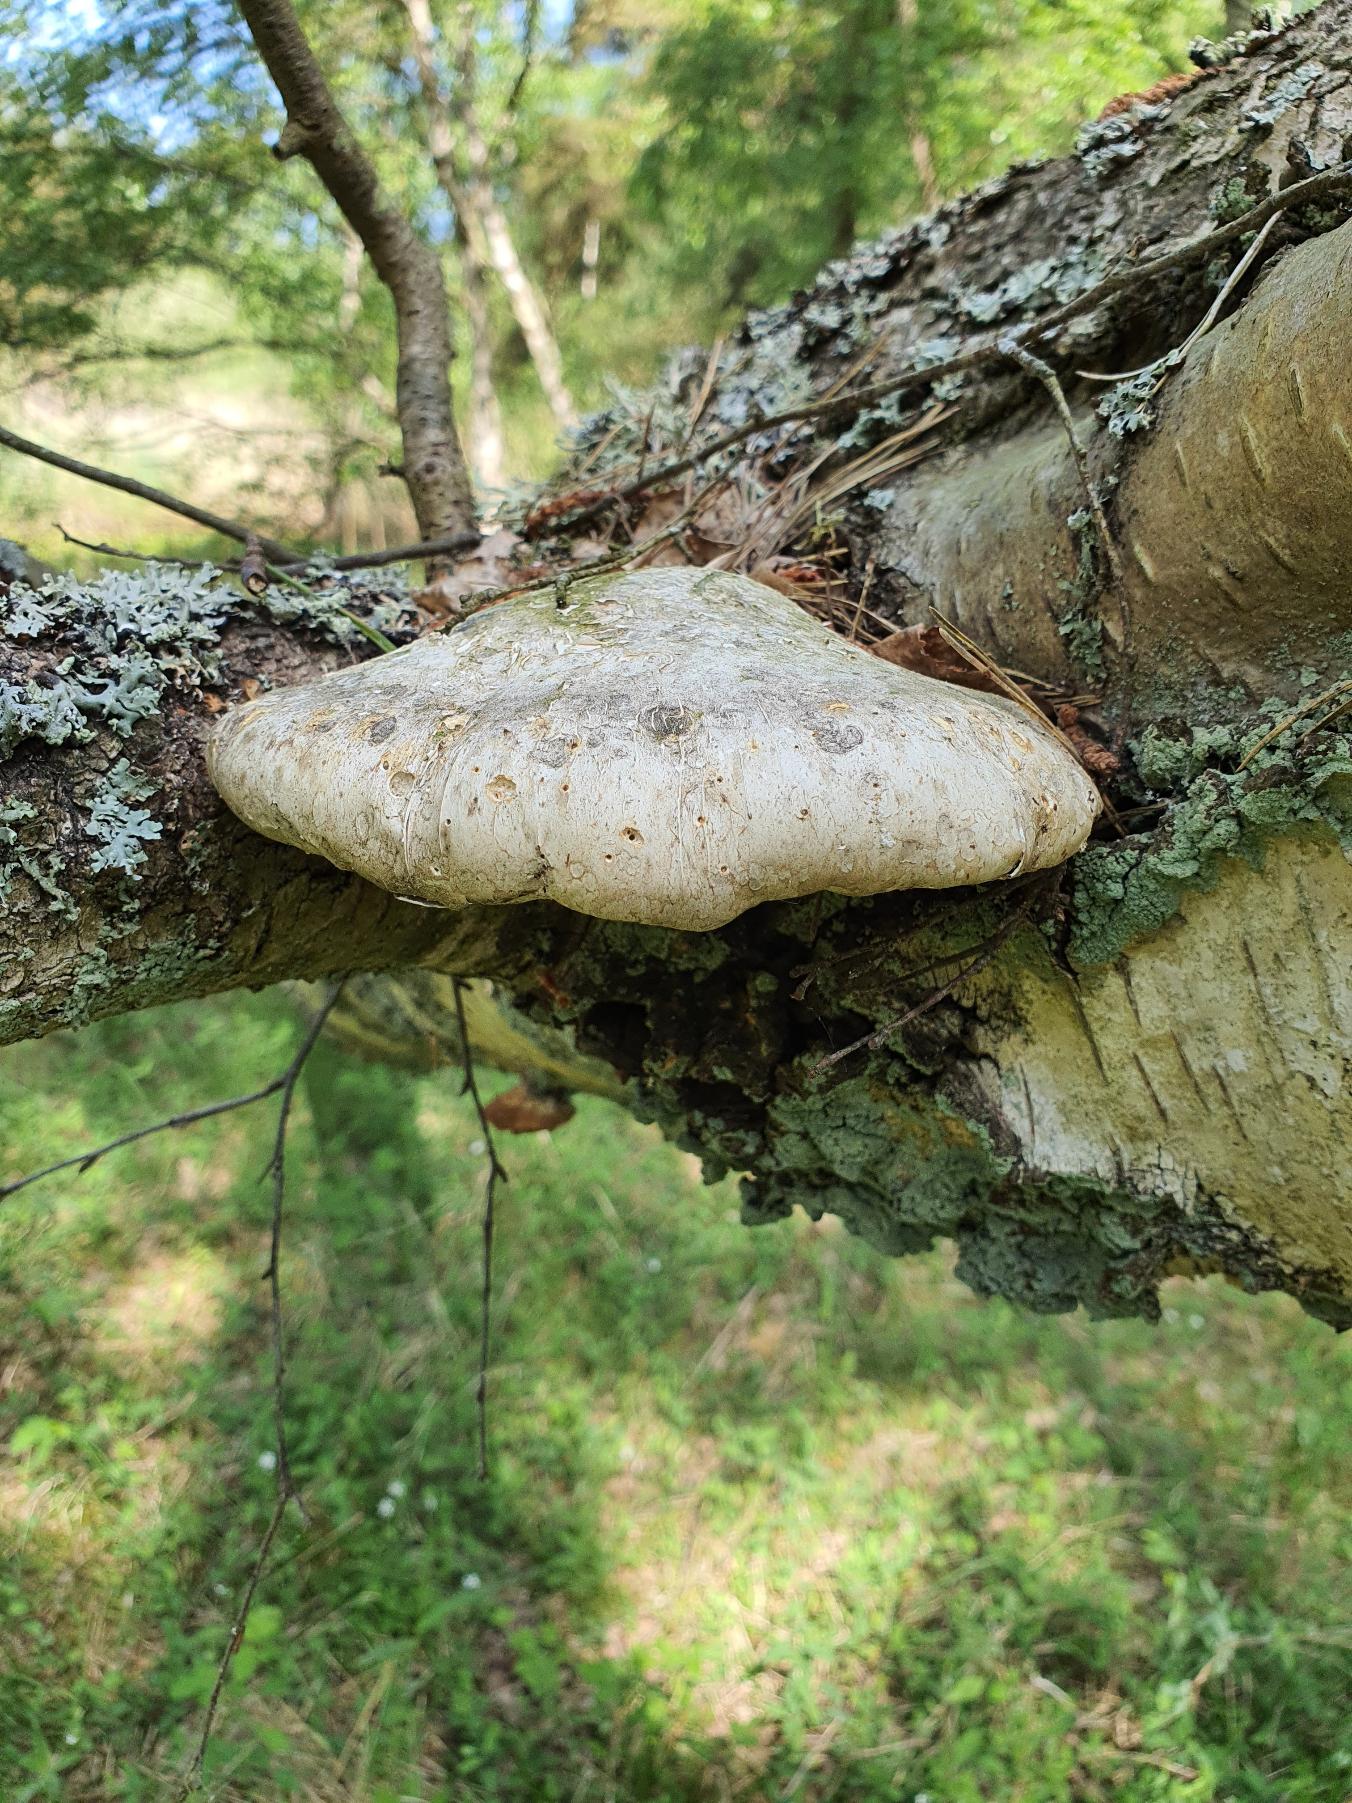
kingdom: Fungi
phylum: Basidiomycota
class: Agaricomycetes
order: Polyporales
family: Fomitopsidaceae
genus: Fomitopsis
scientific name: Fomitopsis betulina
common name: Birkeporesvamp
